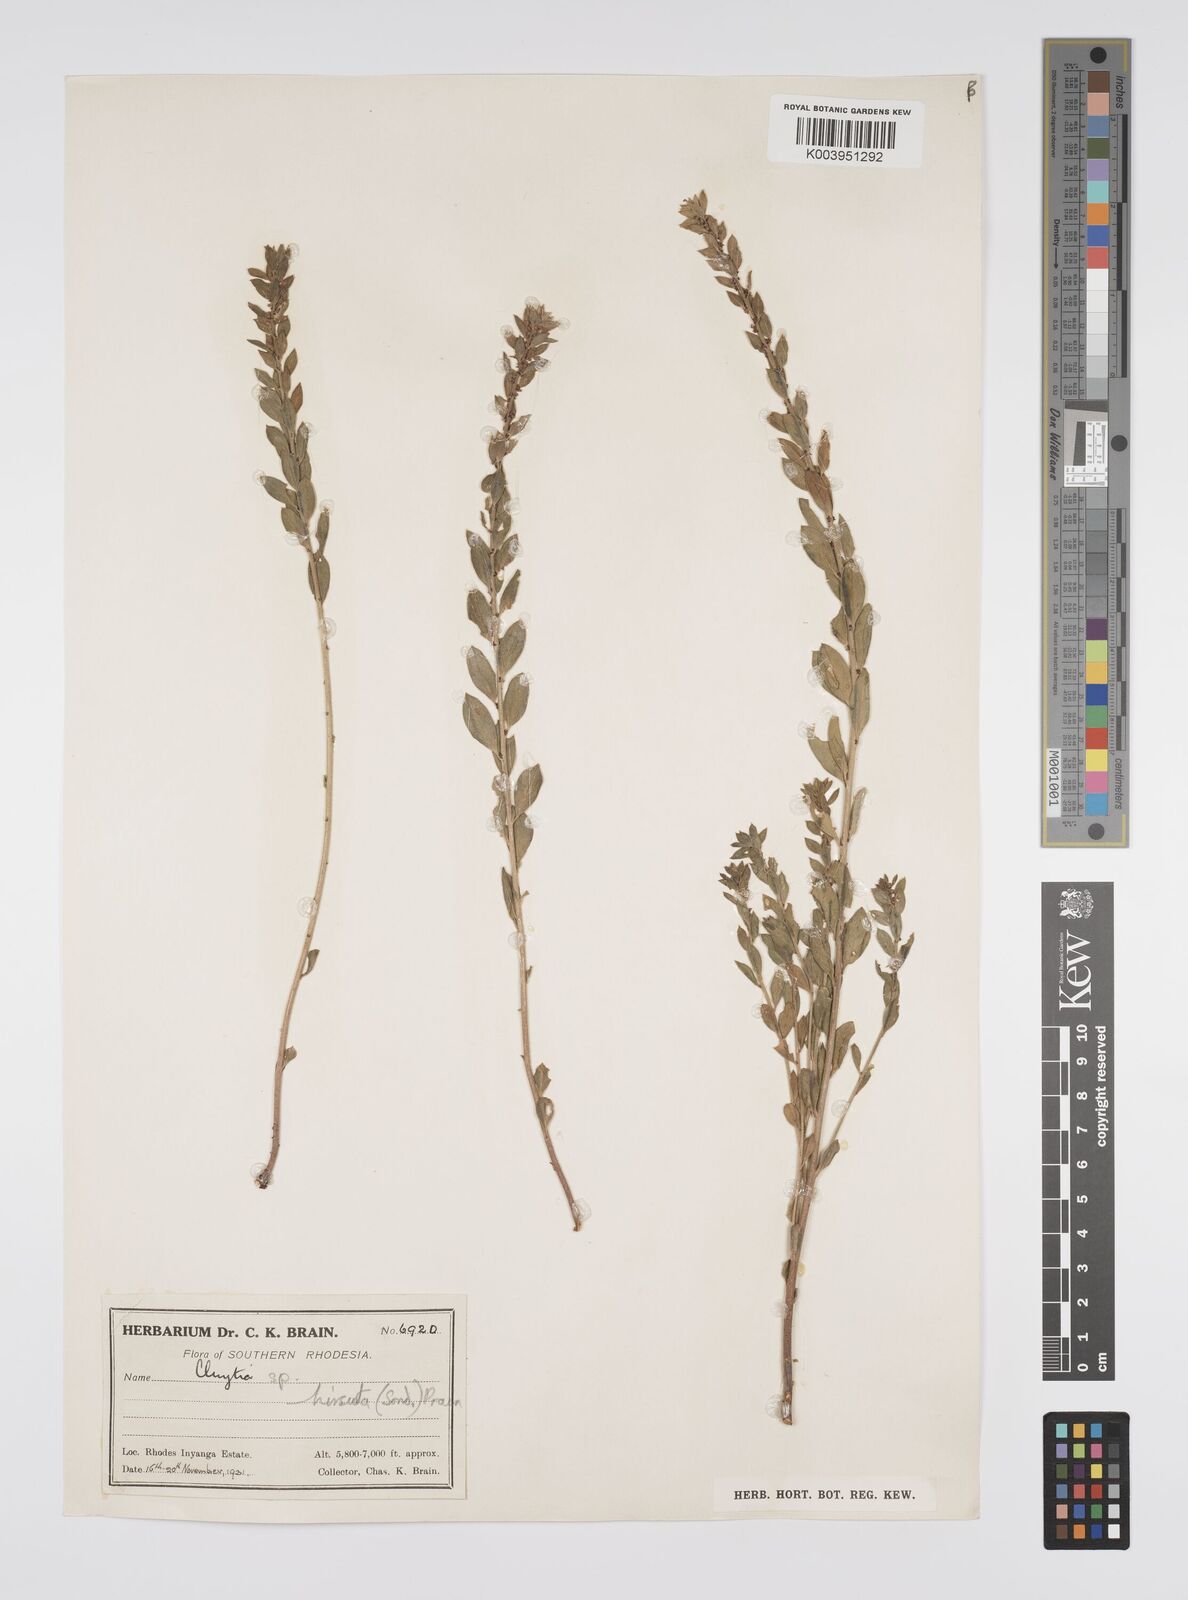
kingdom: Plantae
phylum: Tracheophyta
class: Magnoliopsida
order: Malpighiales
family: Peraceae
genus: Clutia
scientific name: Clutia hirsuta
